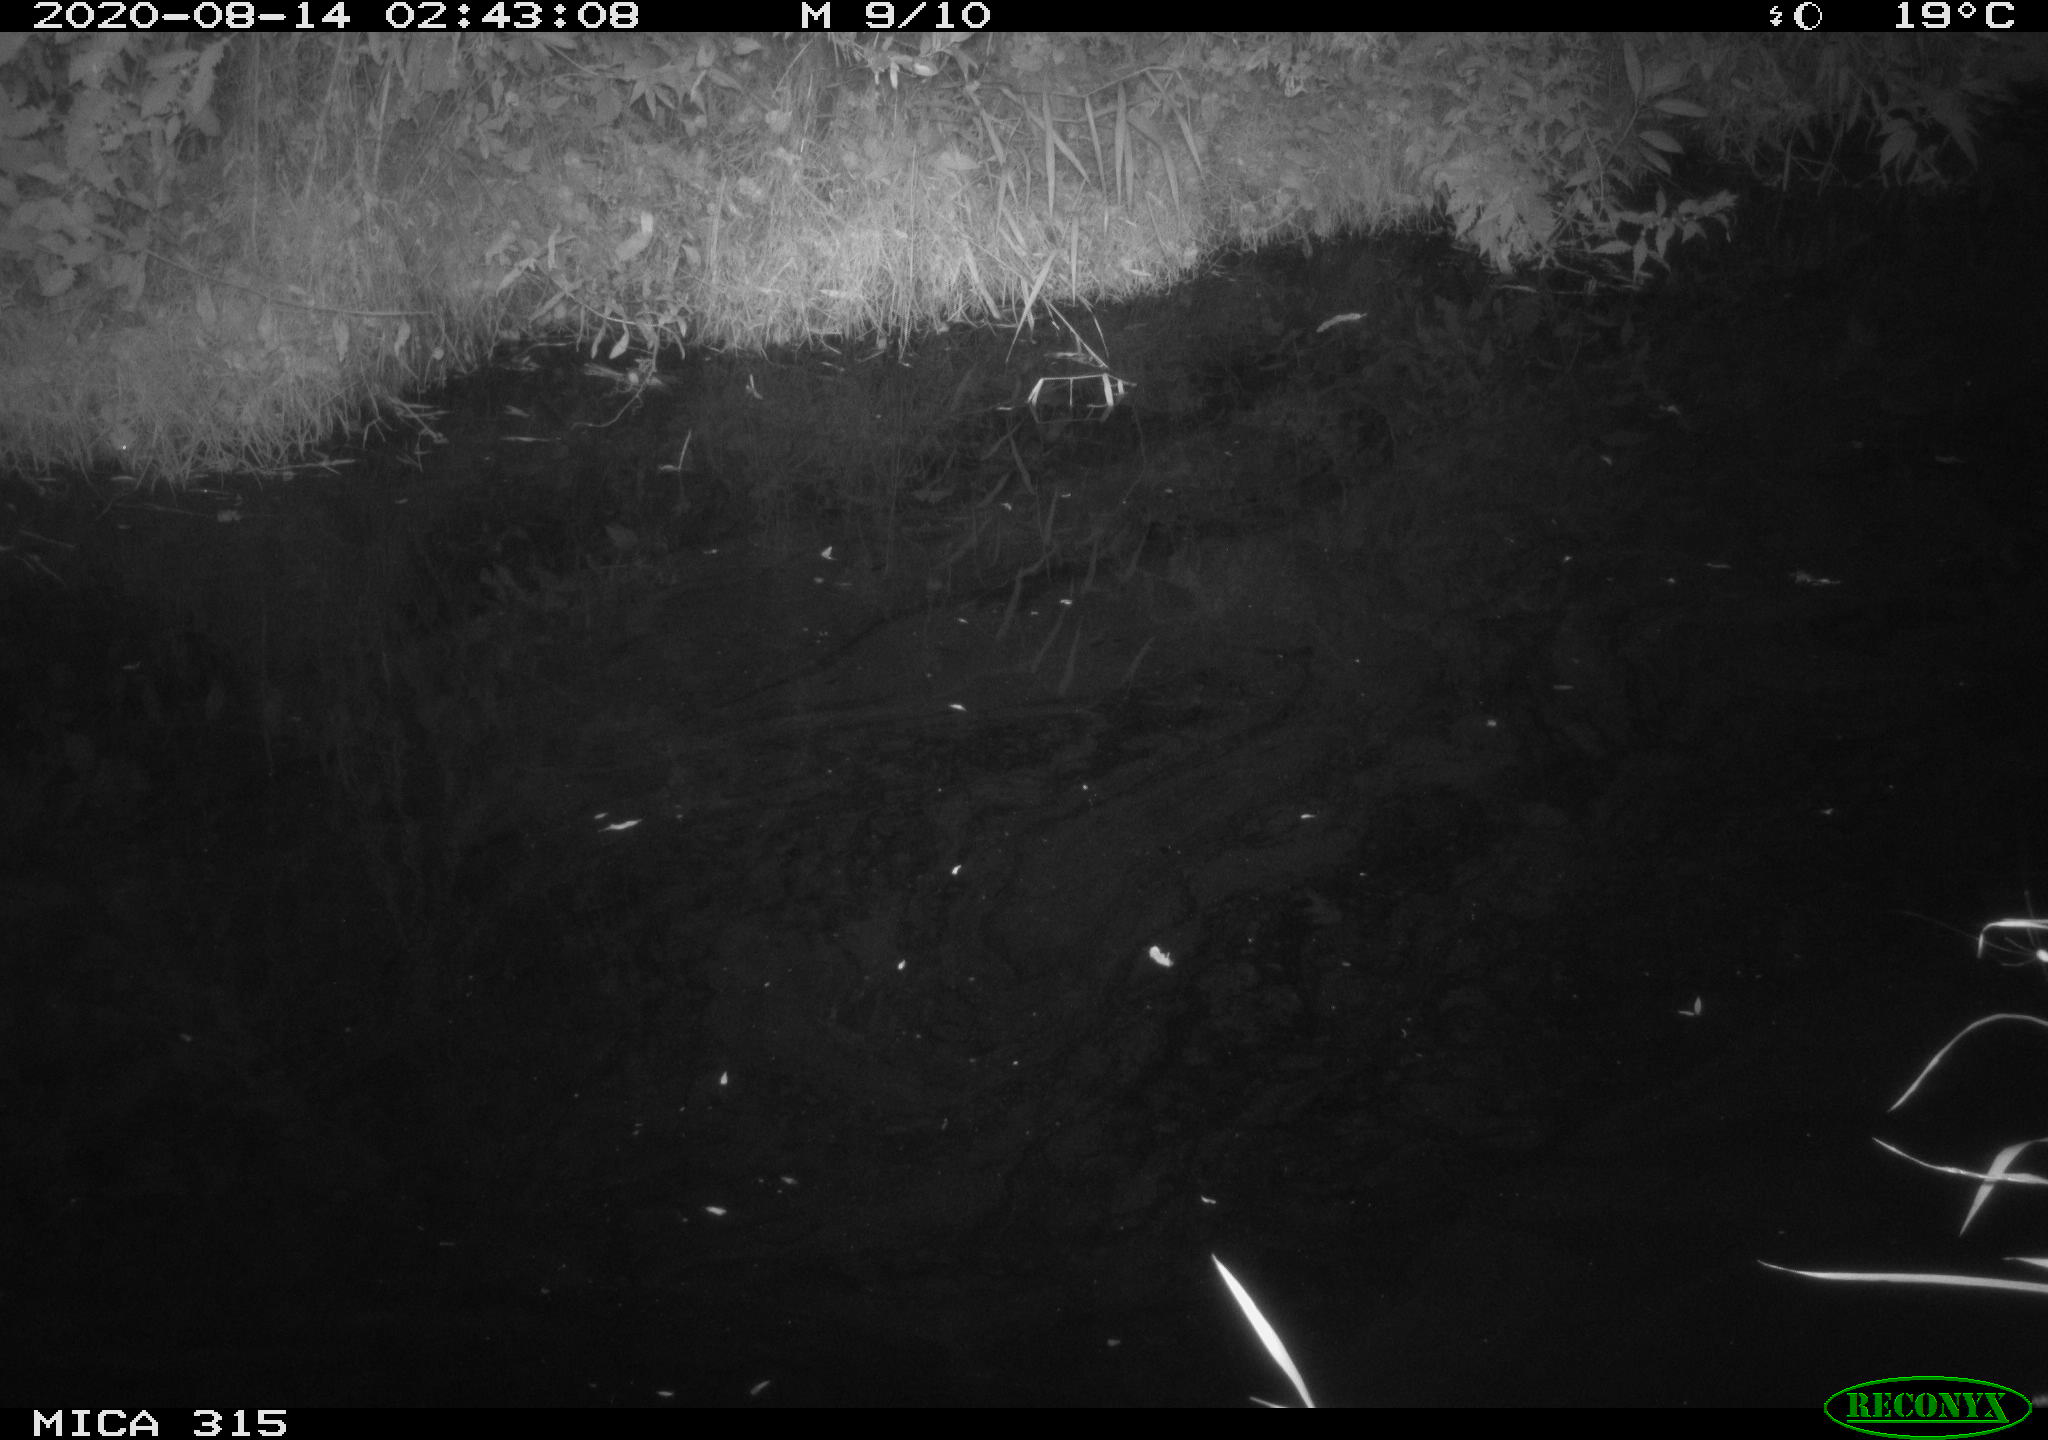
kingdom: Animalia
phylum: Chordata
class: Aves
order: Anseriformes
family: Anatidae
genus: Anas
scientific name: Anas platyrhynchos
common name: Mallard
